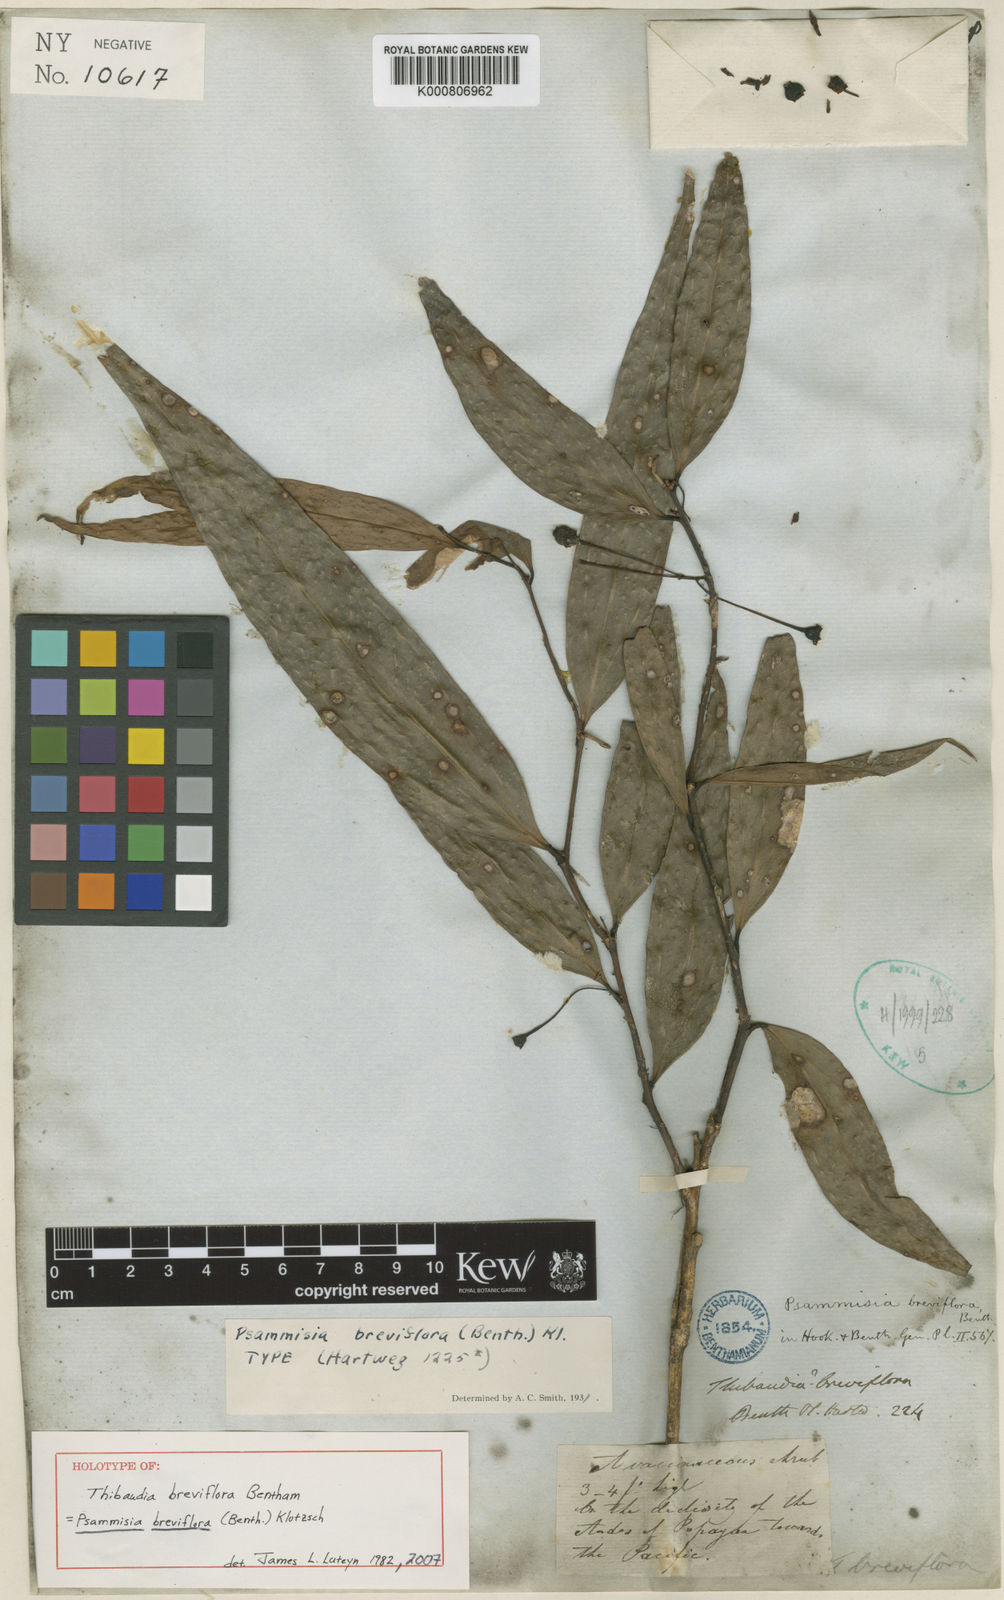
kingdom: Plantae
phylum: Tracheophyta
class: Magnoliopsida
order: Ericales
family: Ericaceae
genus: Psammisia
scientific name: Psammisia breviflora
